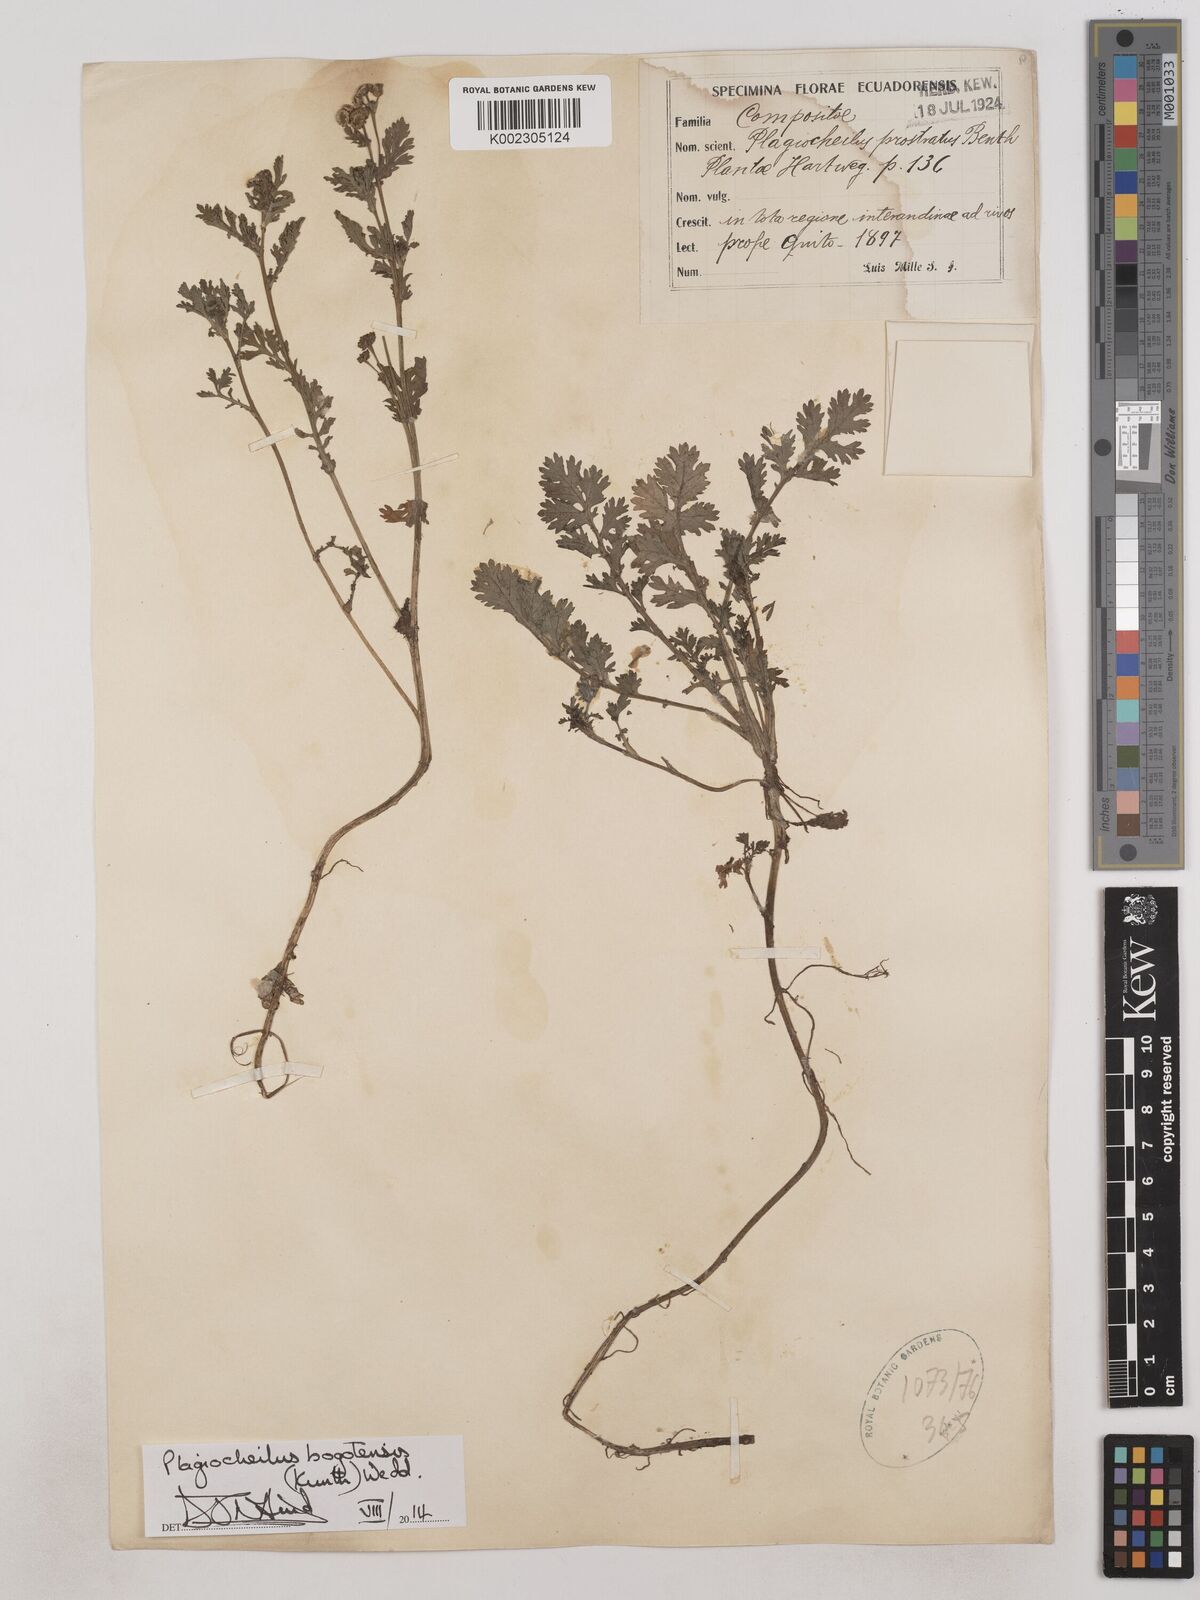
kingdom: Plantae
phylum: Tracheophyta
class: Magnoliopsida
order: Asterales
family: Asteraceae
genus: Plagiocheilus
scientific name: Plagiocheilus bogotensis
